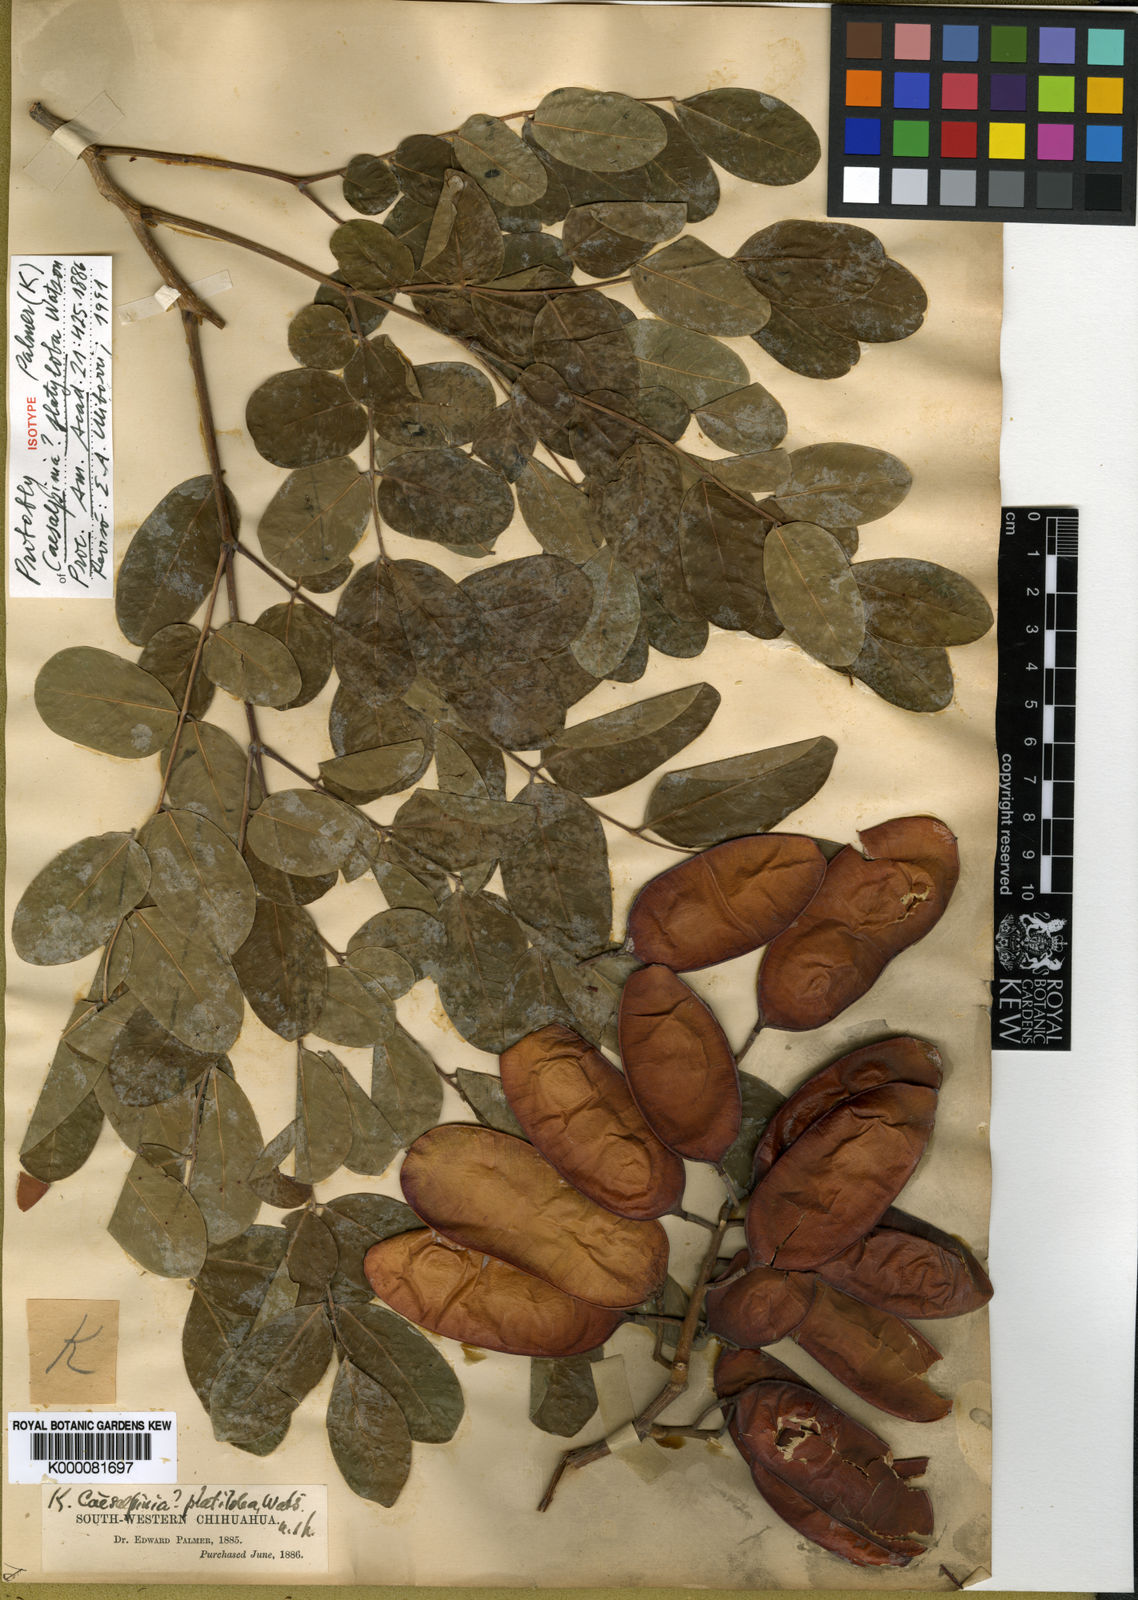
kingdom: Plantae
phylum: Tracheophyta
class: Magnoliopsida
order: Fabales
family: Fabaceae
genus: Coulteria
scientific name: Coulteria platyloba
